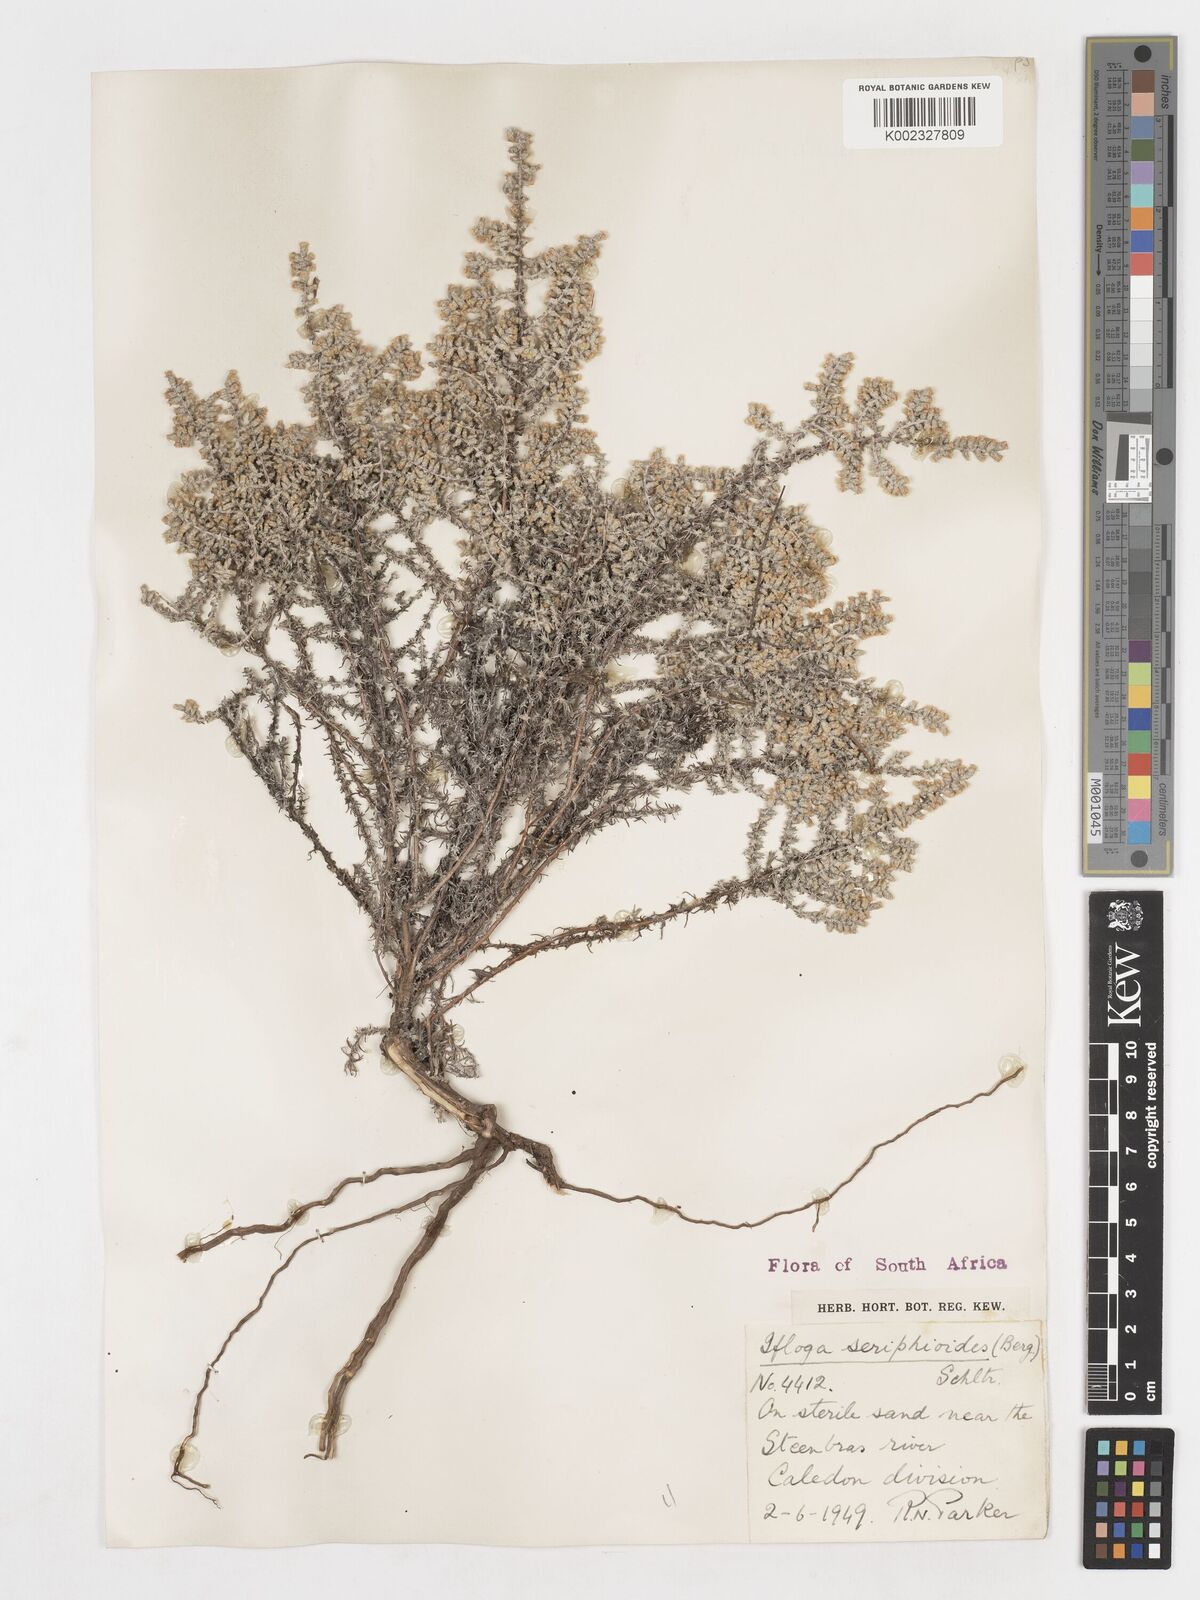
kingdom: Plantae
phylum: Tracheophyta
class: Magnoliopsida
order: Asterales
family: Asteraceae
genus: Ifloga
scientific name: Ifloga ambigua
